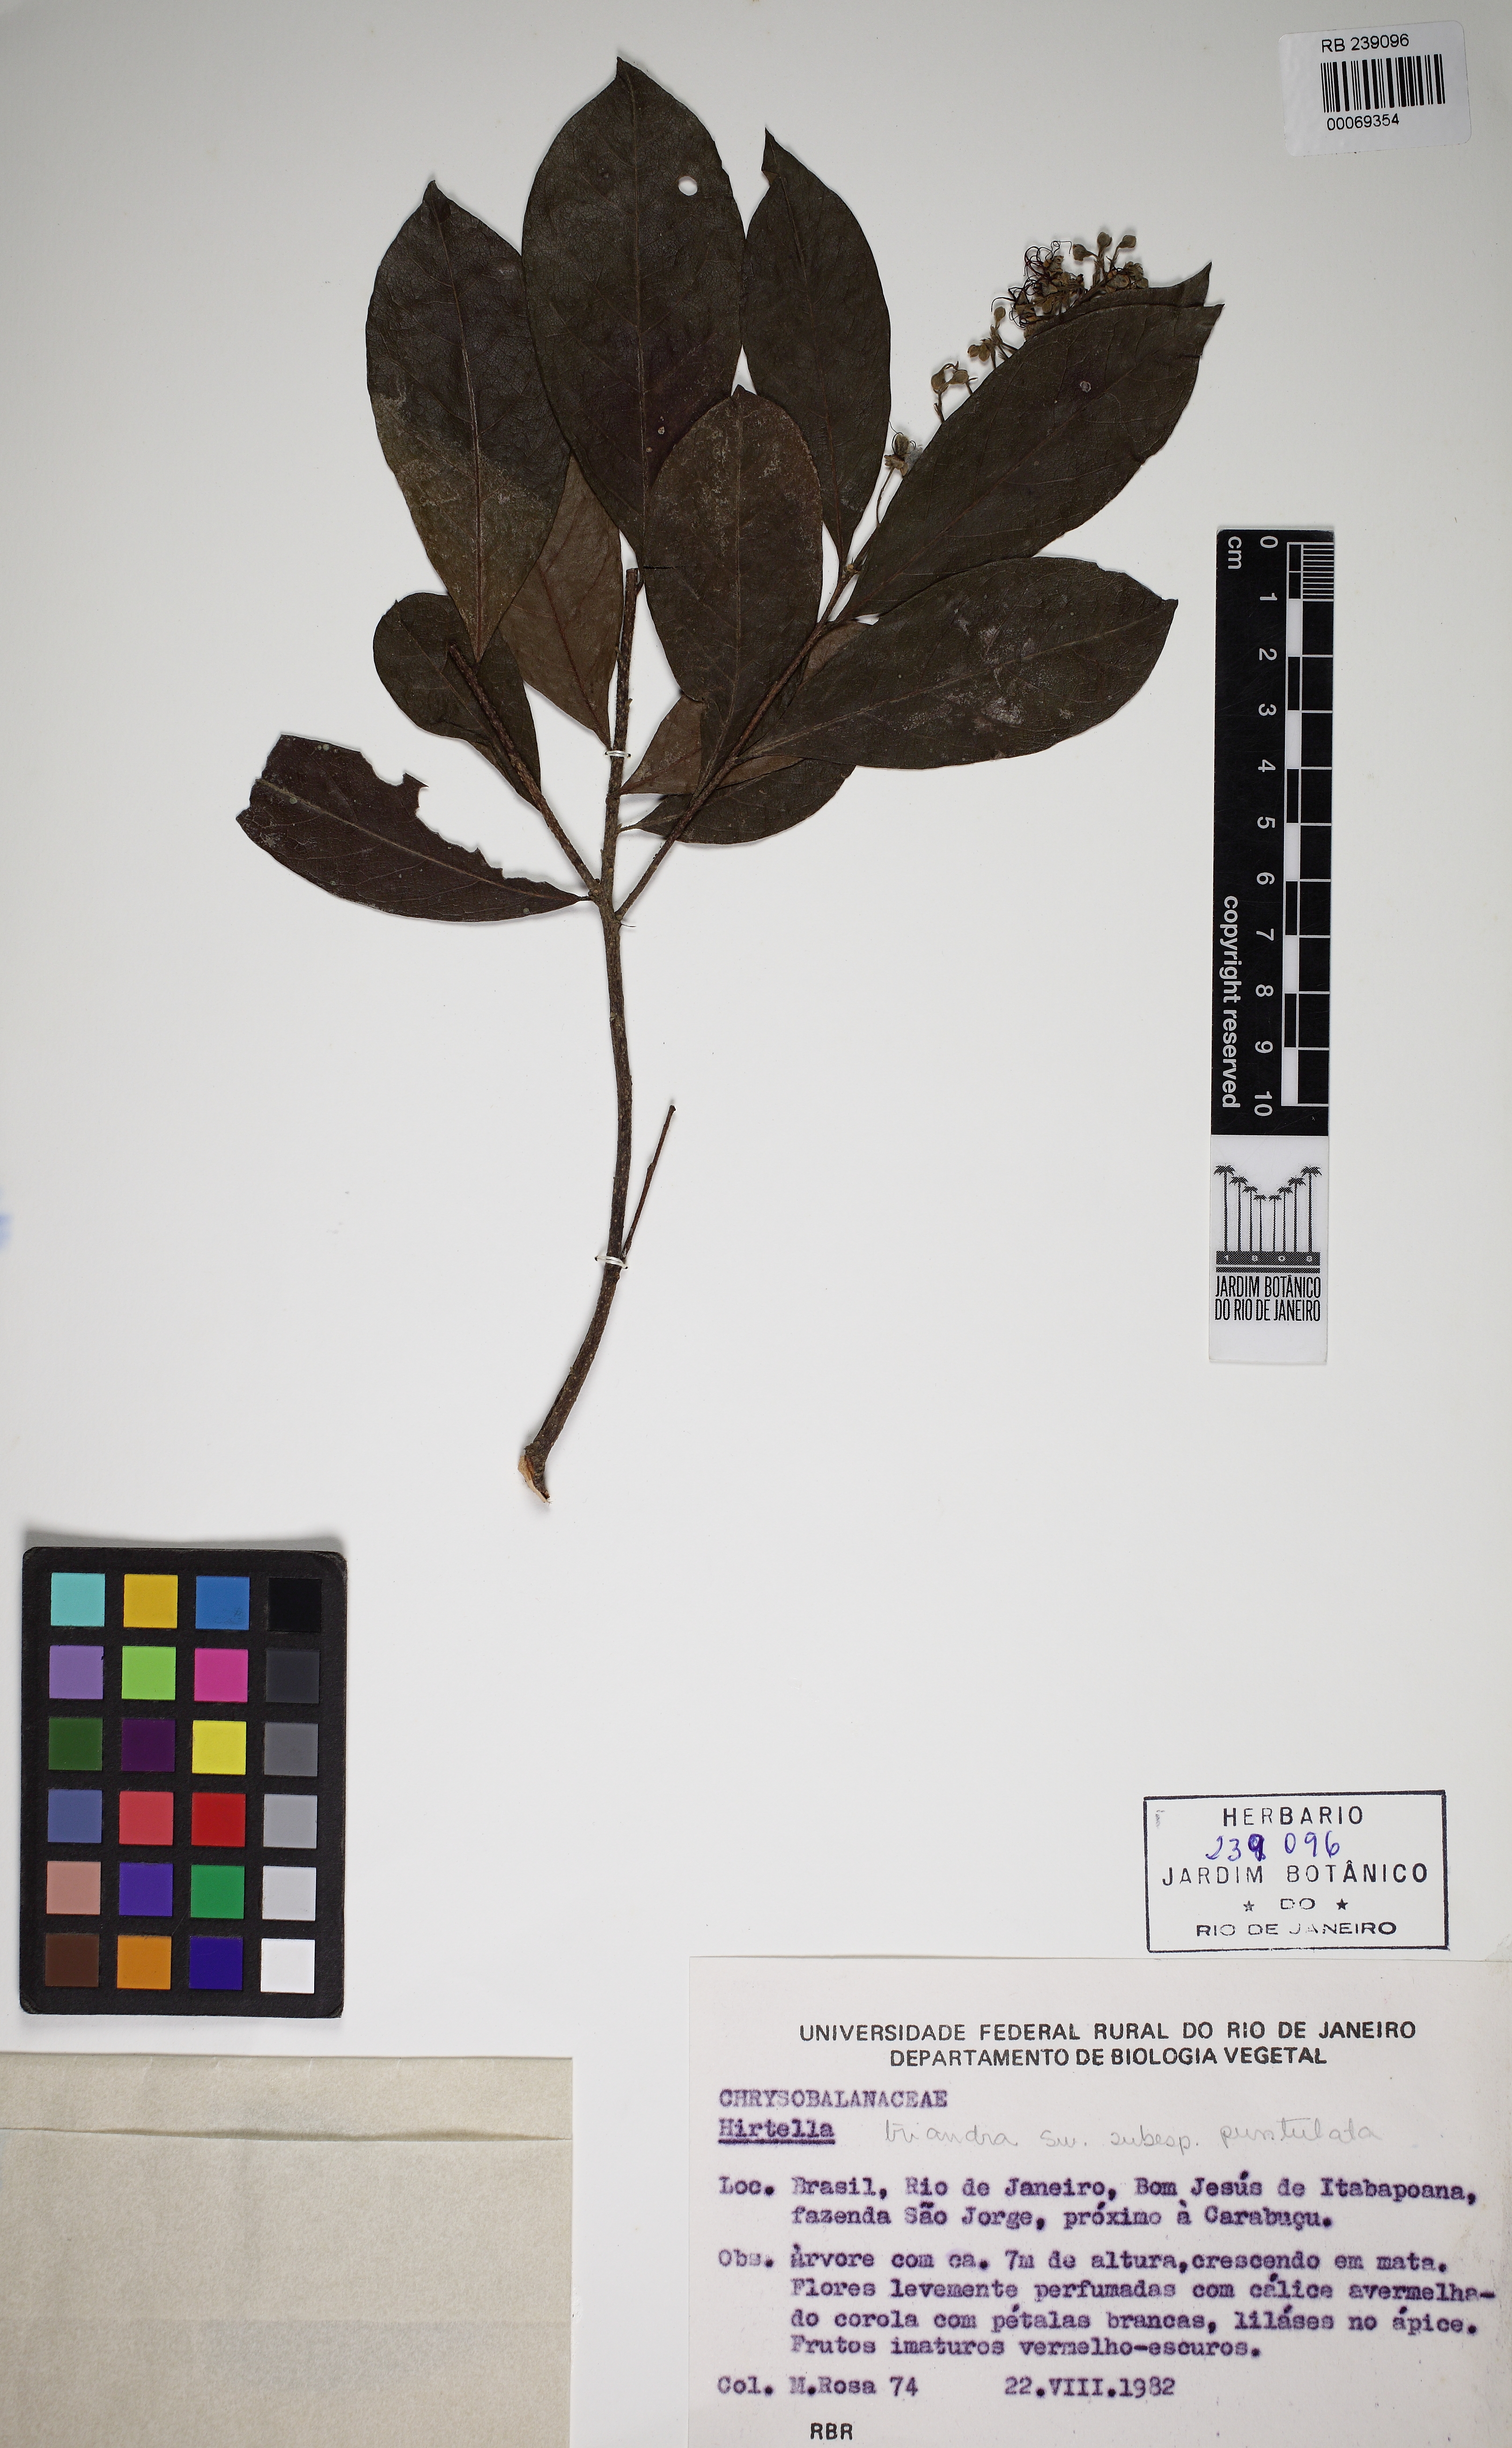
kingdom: Plantae
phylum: Tracheophyta
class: Magnoliopsida
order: Malpighiales
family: Chrysobalanaceae
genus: Hirtella
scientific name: Hirtella triandra
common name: Hairy plum
